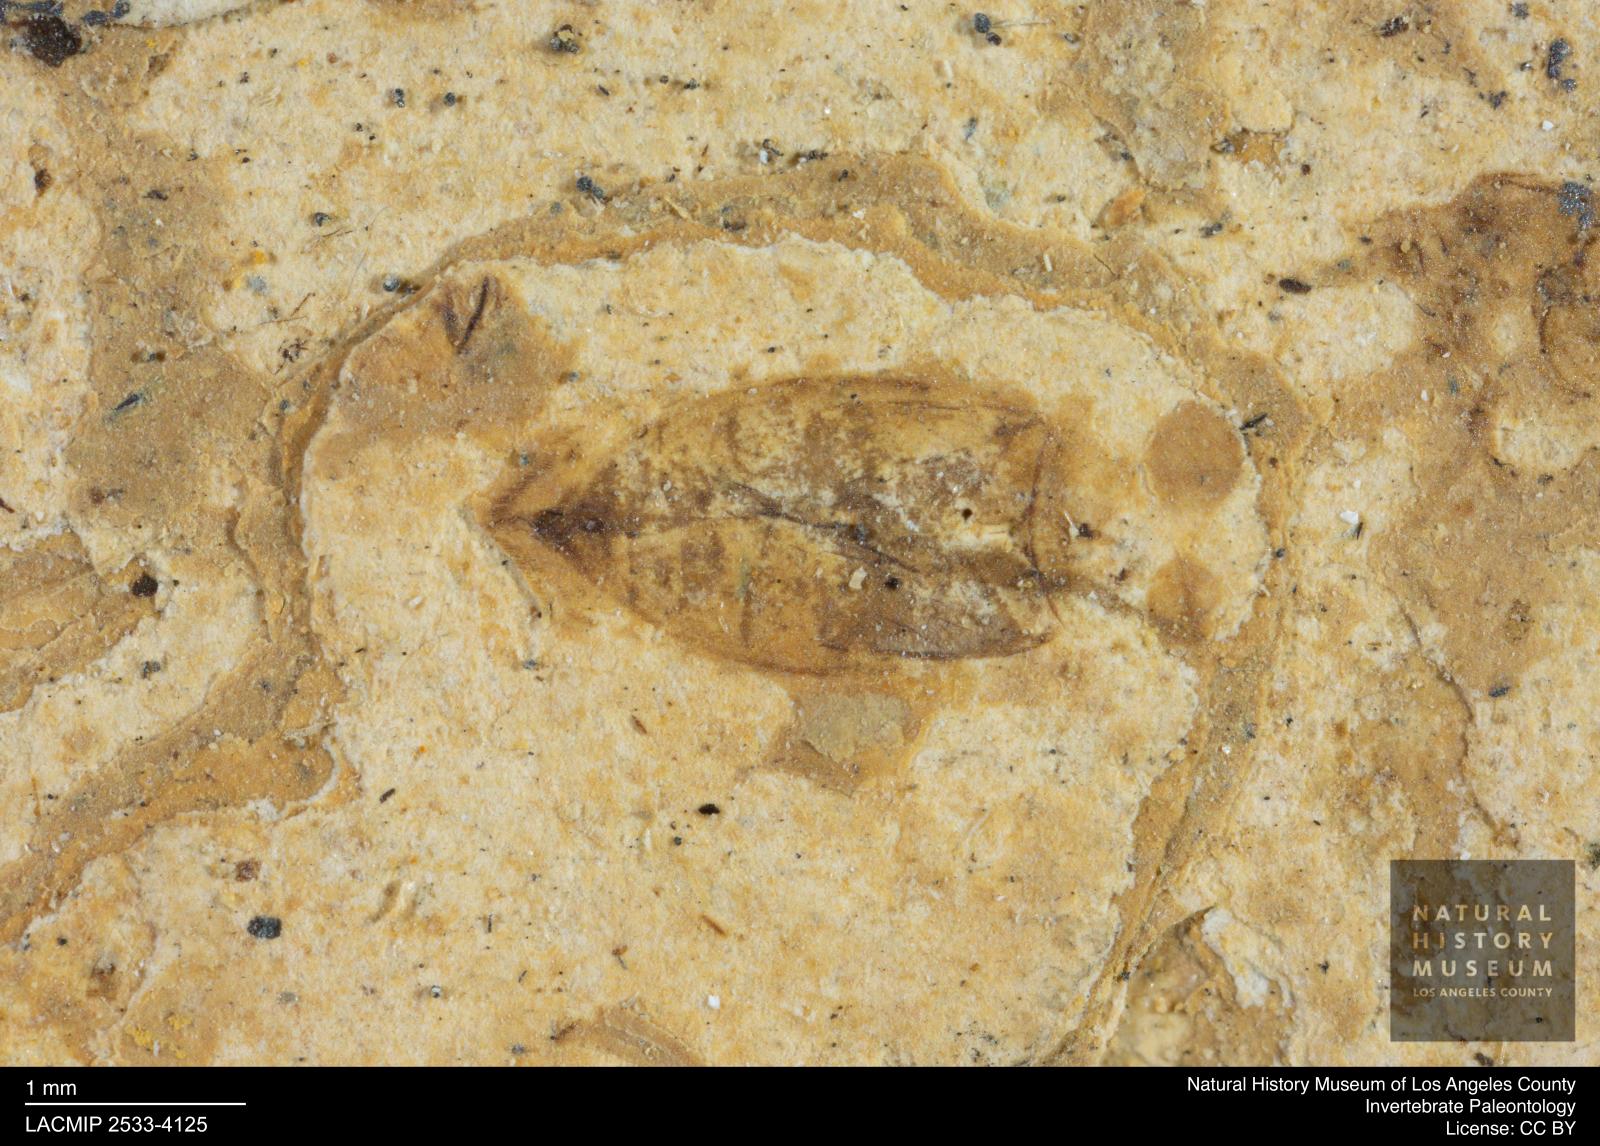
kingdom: Animalia
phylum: Arthropoda
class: Insecta
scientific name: Insecta
